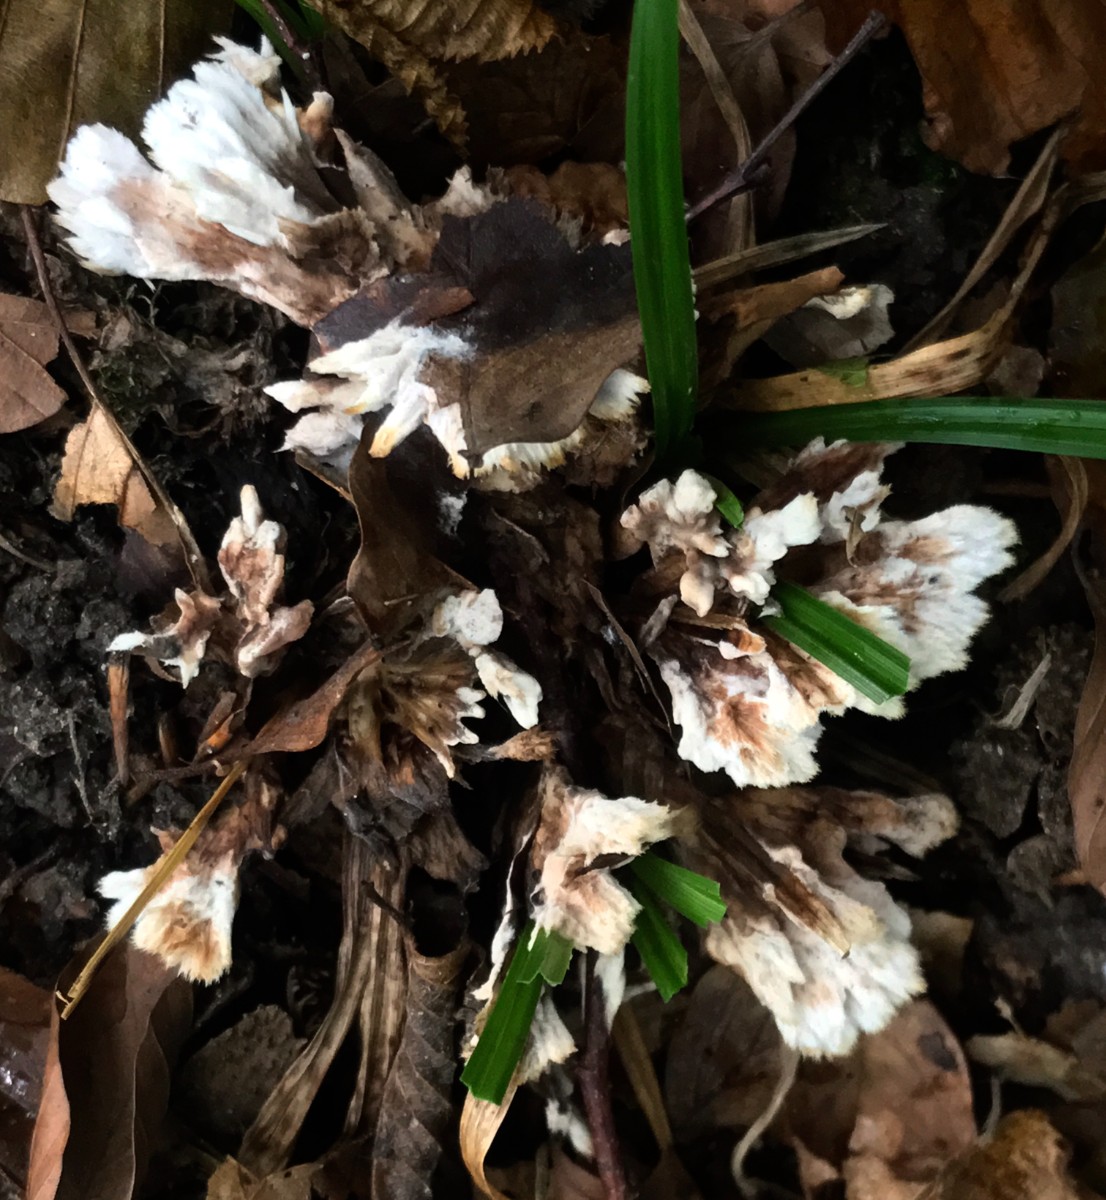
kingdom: Fungi
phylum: Basidiomycota
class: Agaricomycetes
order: Thelephorales
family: Thelephoraceae
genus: Thelephora
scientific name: Thelephora terrestris
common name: fliget frynsesvamp
